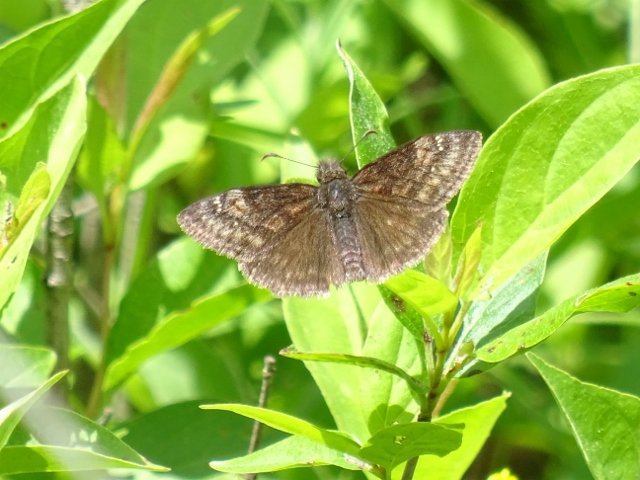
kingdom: Animalia
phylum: Arthropoda
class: Insecta
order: Lepidoptera
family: Hesperiidae
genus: Gesta
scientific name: Gesta
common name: Wild Indigo Duskywing
